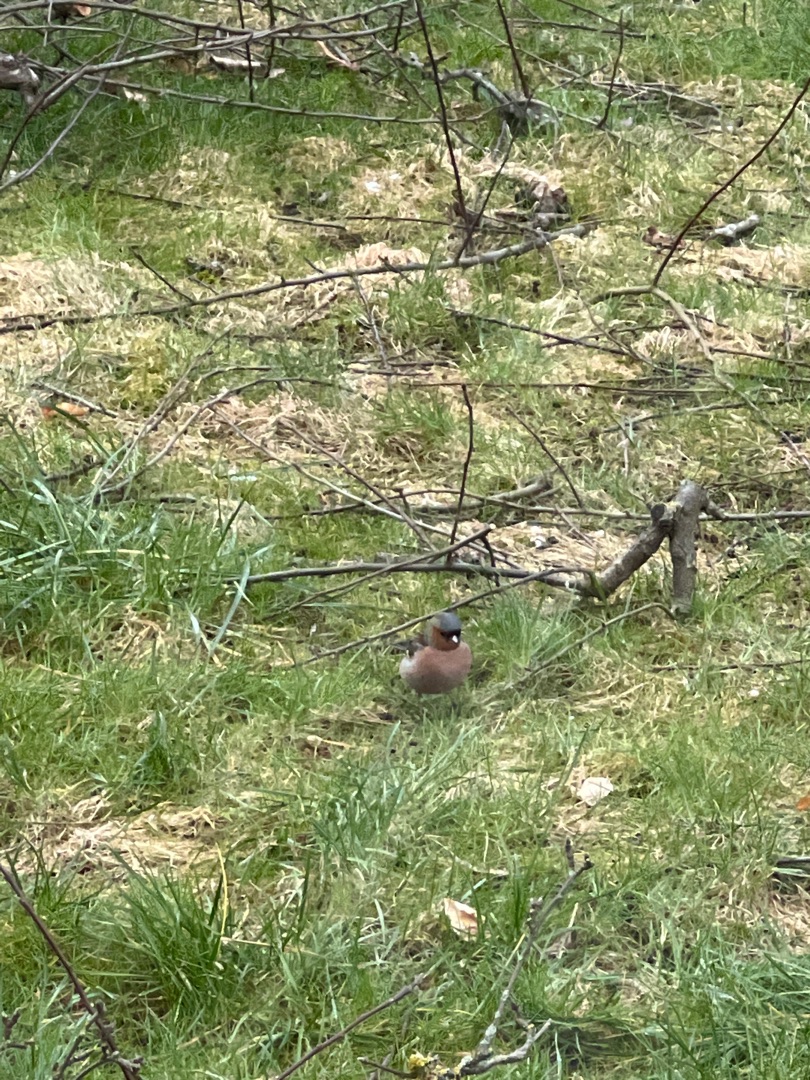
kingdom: Animalia
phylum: Chordata
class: Aves
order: Passeriformes
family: Fringillidae
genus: Fringilla
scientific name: Fringilla coelebs
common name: Bogfinke
